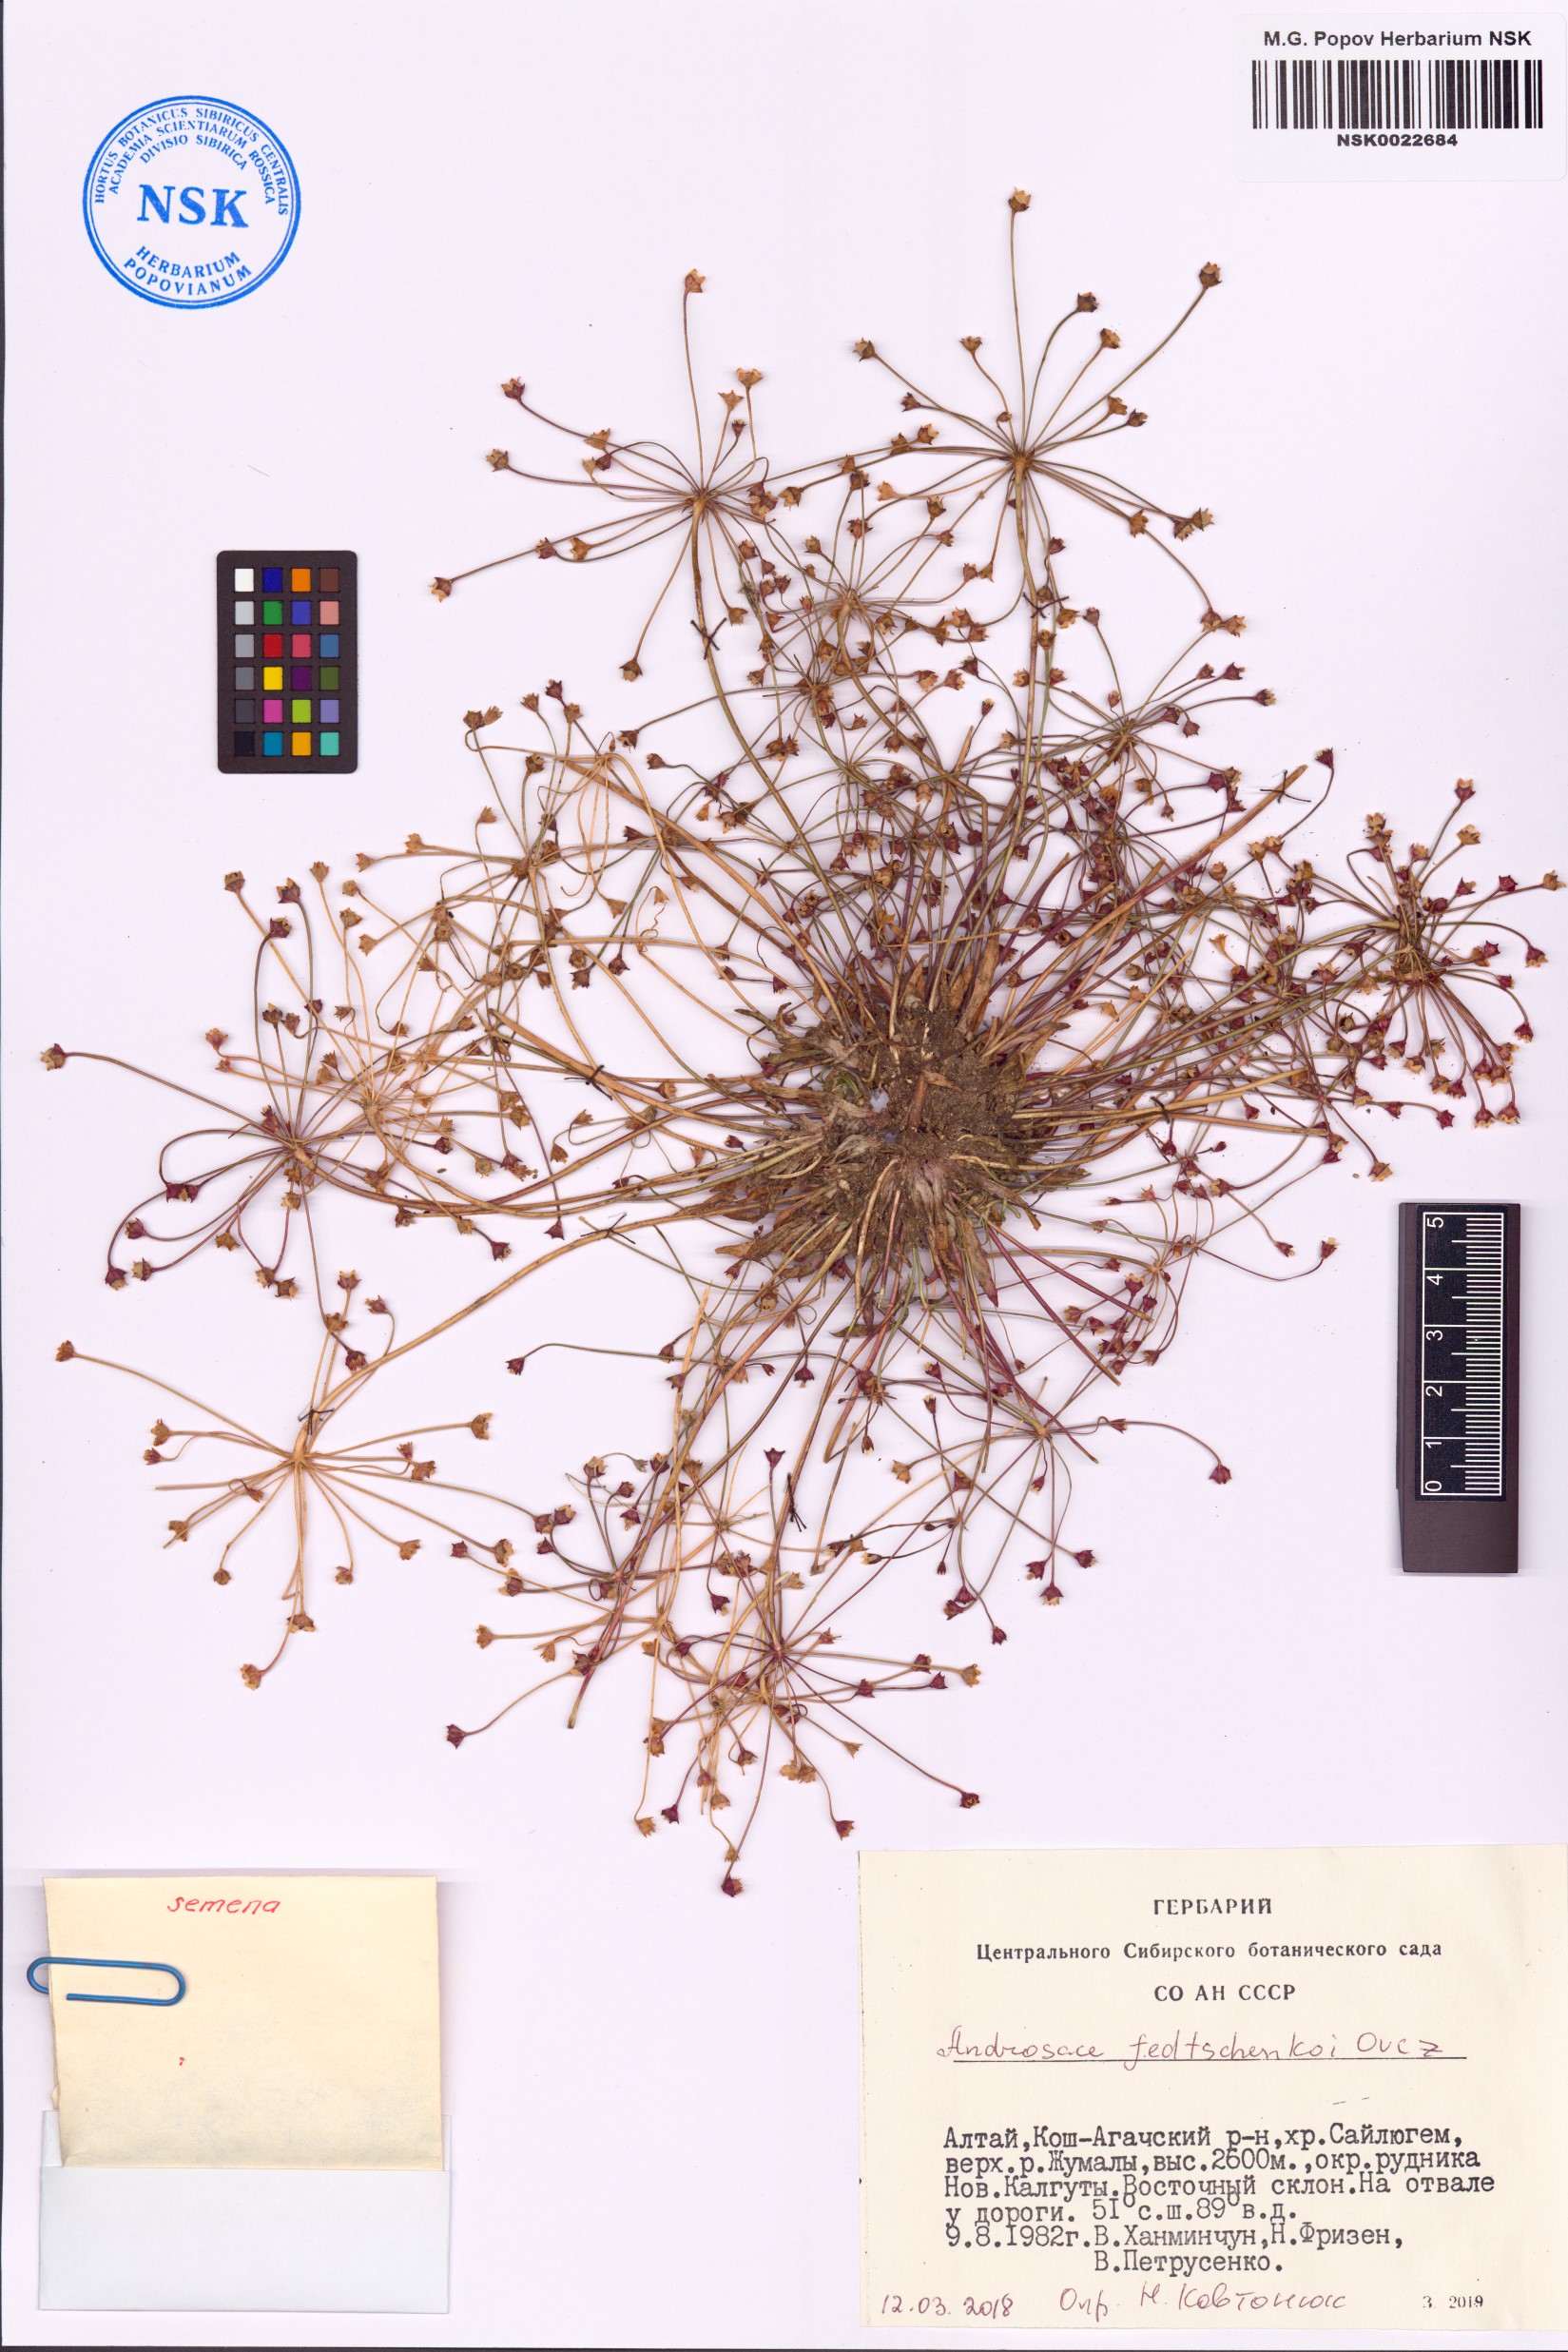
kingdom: Plantae
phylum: Tracheophyta
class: Magnoliopsida
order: Ericales
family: Primulaceae
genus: Androsace
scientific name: Androsace fedtschenkoi
